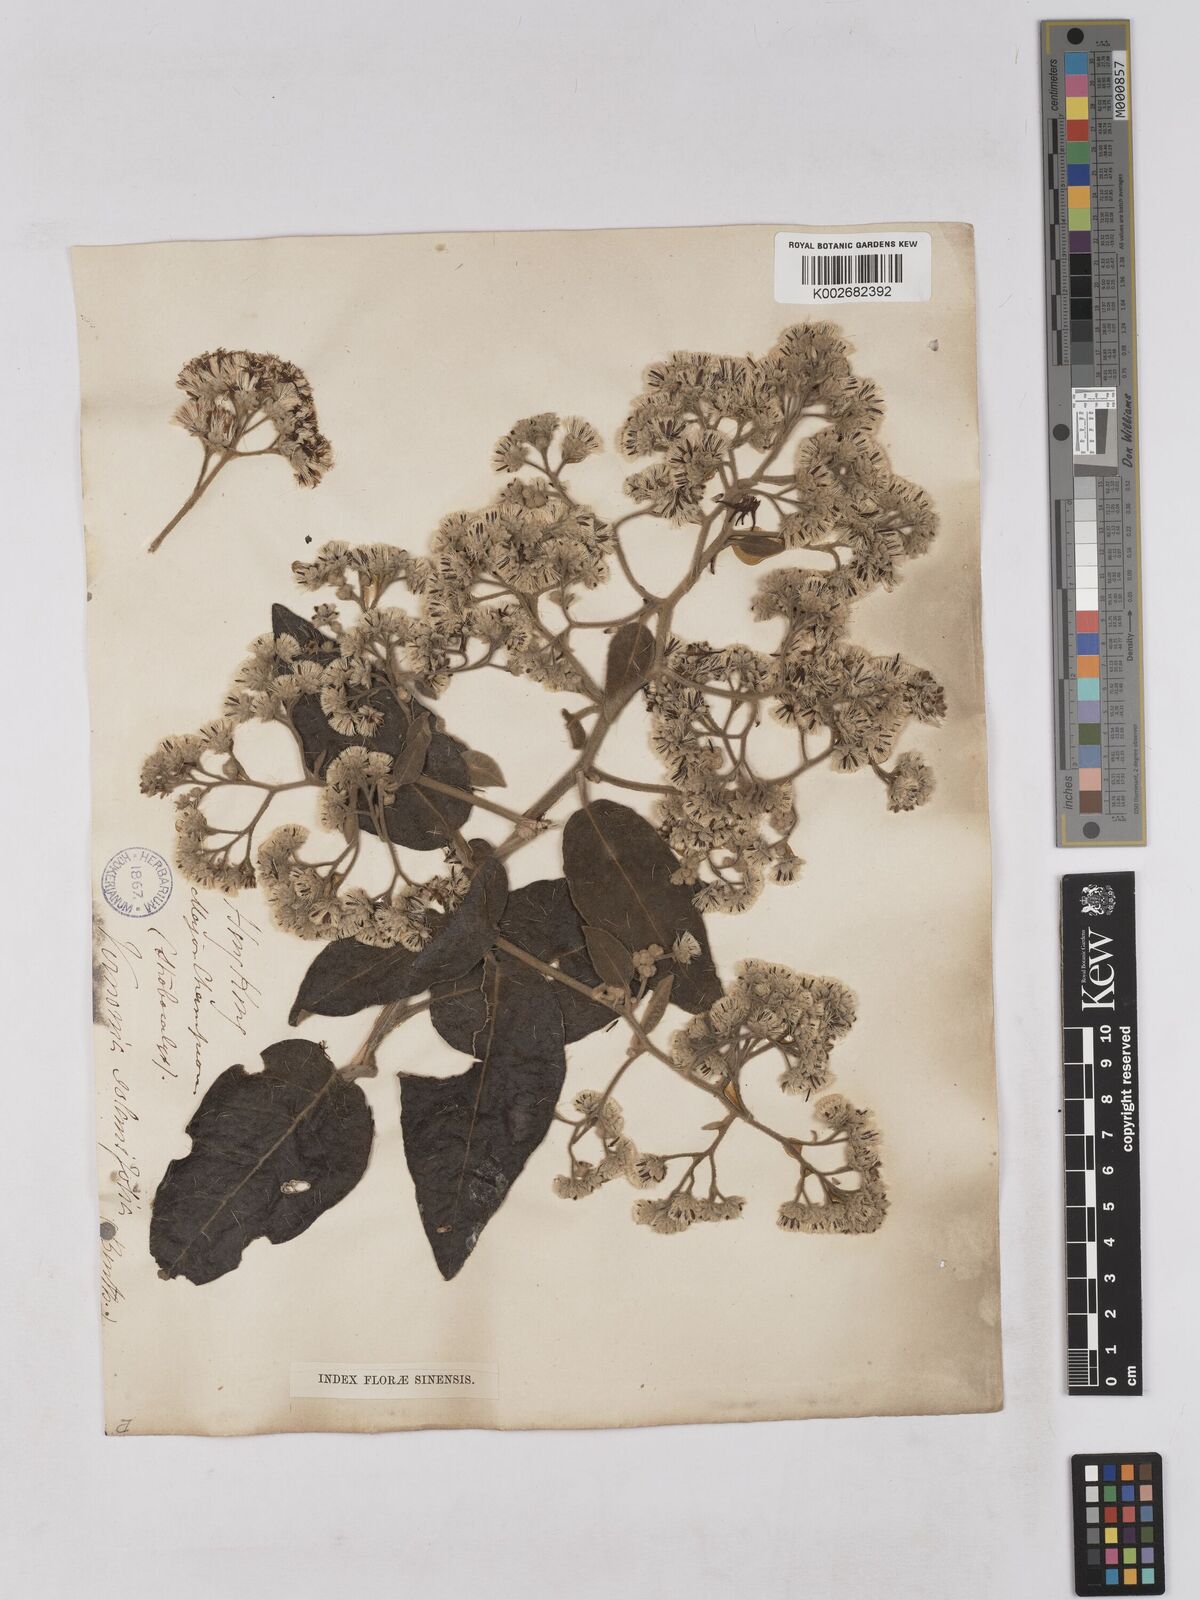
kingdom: Plantae
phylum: Tracheophyta
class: Magnoliopsida
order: Asterales
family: Asteraceae
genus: Strobocalyx
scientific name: Strobocalyx solanifolia
